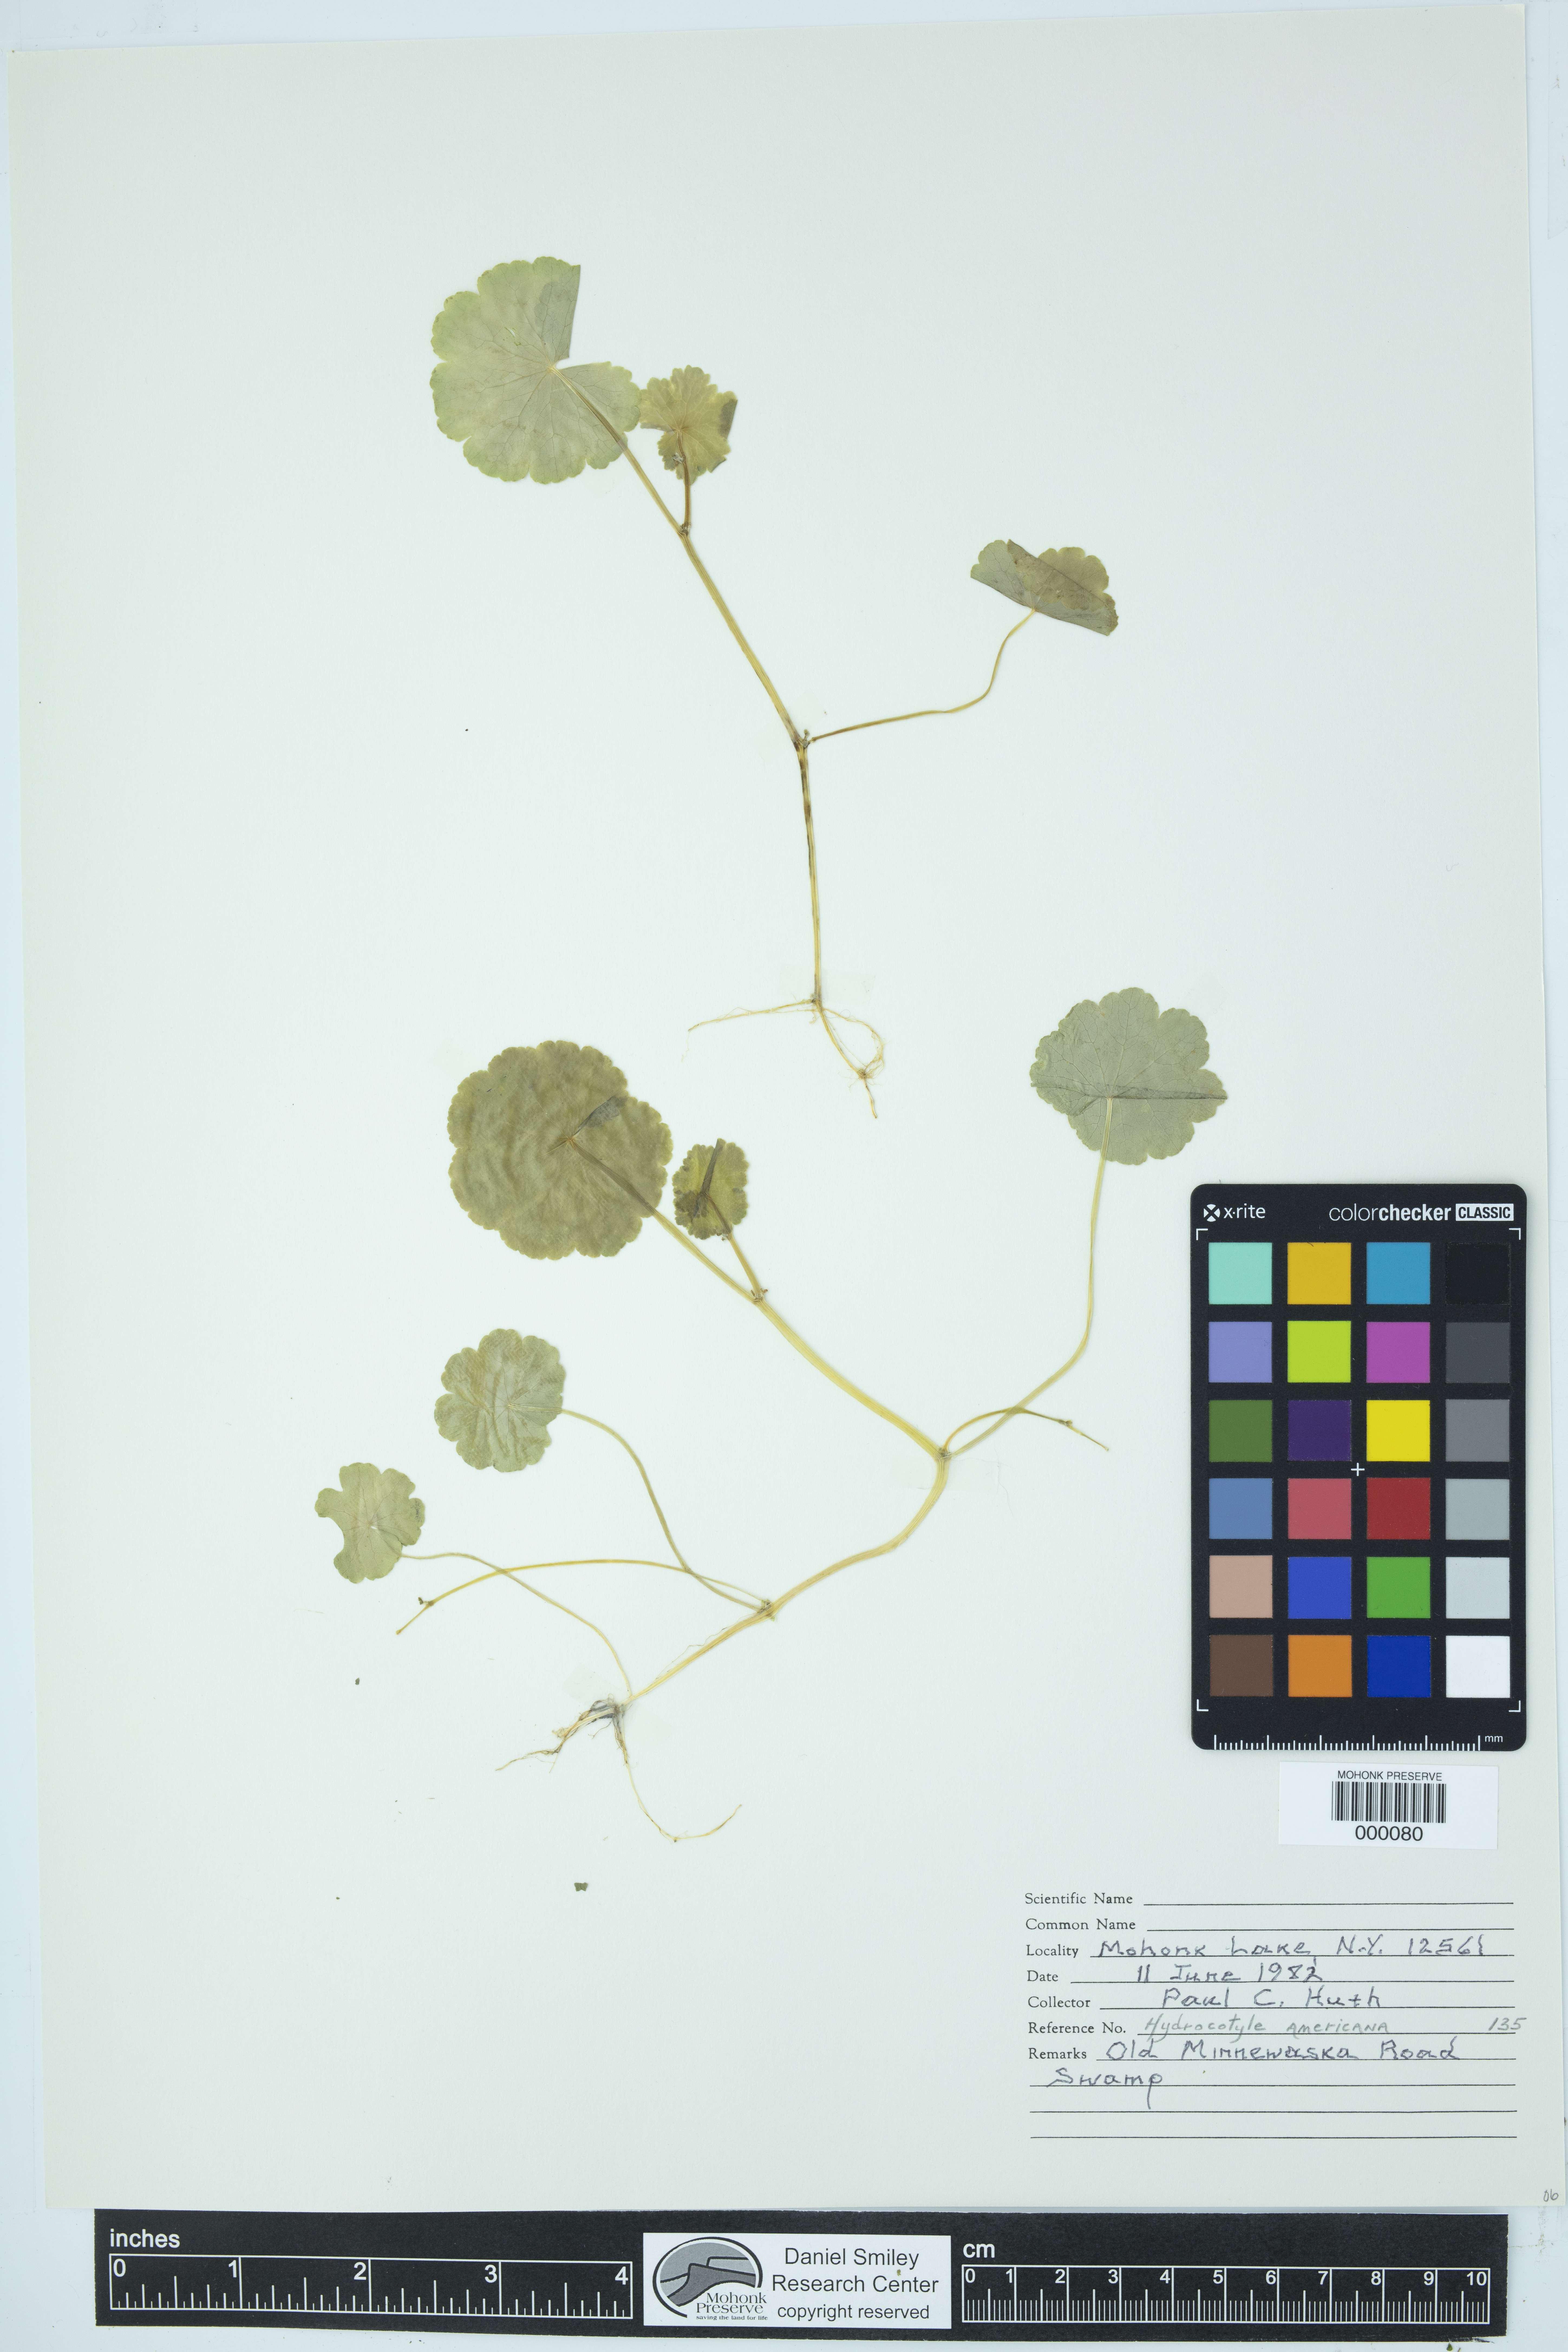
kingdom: Plantae
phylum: Tracheophyta
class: Magnoliopsida
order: Apiales
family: Araliaceae
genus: Hydrocotyle
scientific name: Hydrocotyle americana
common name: American water-pennywort
